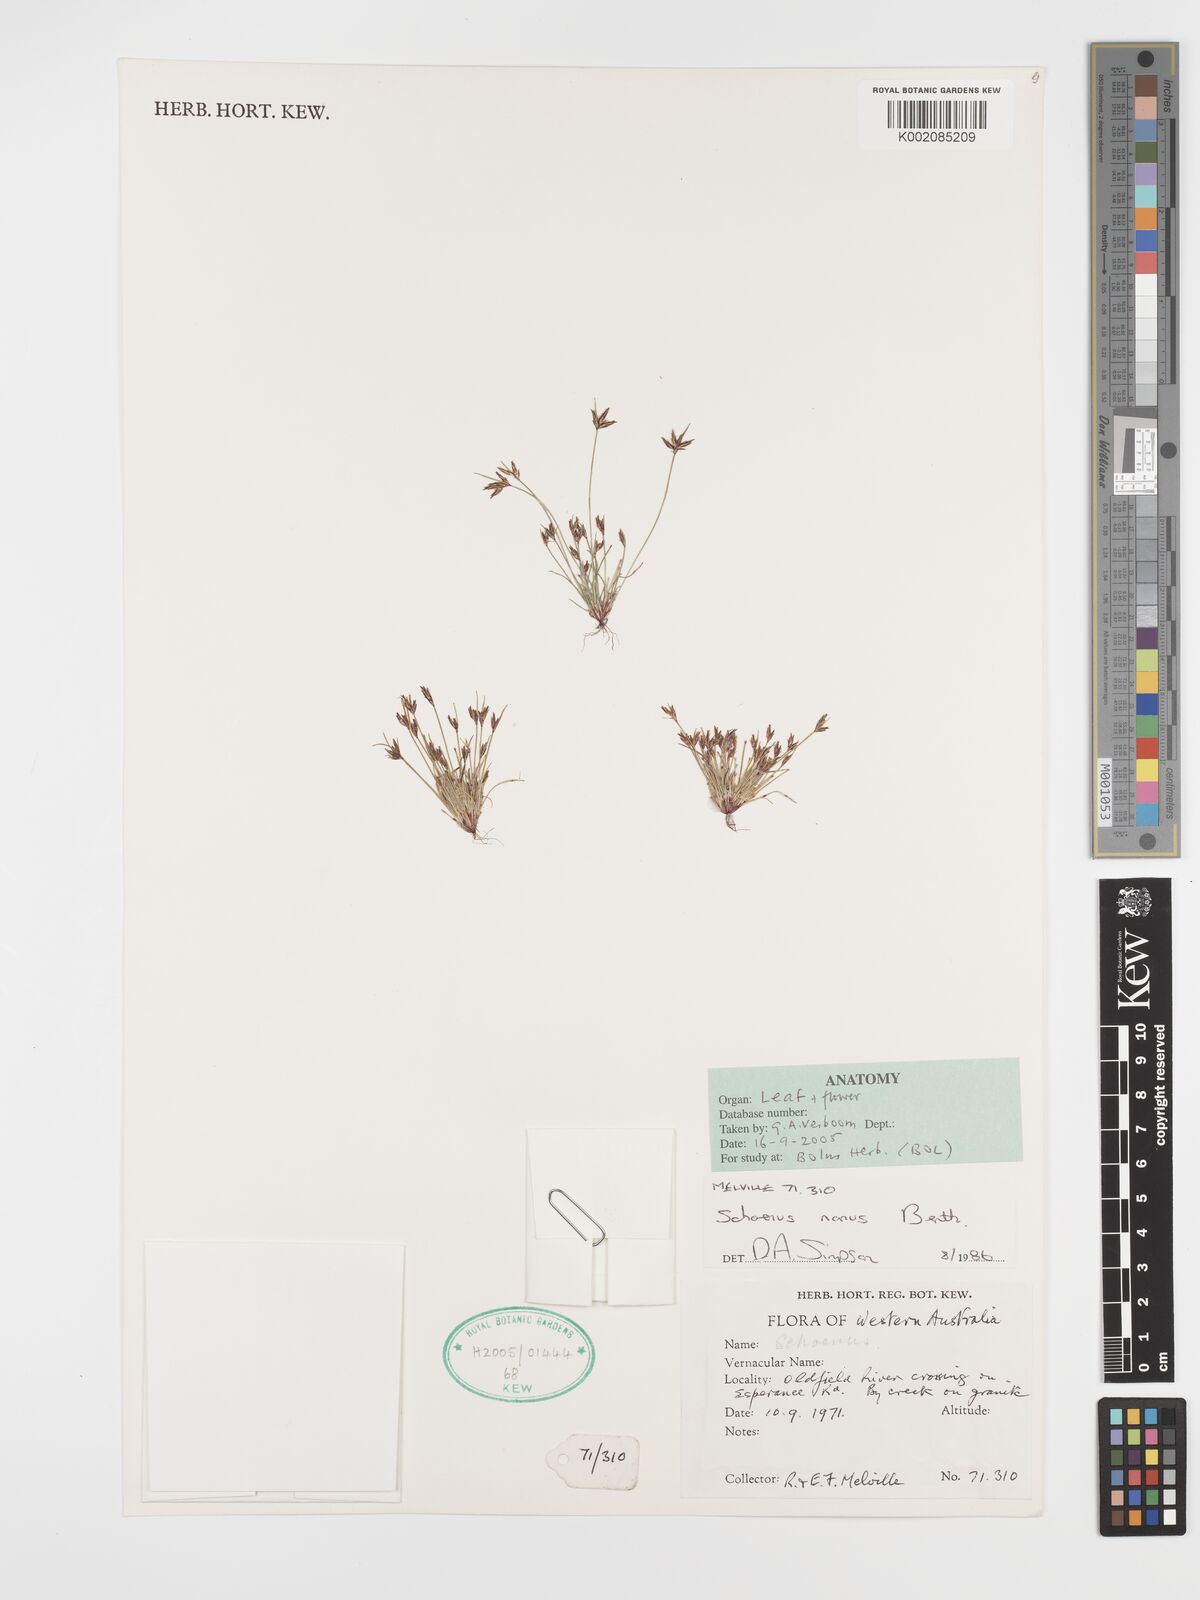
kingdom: Plantae
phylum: Tracheophyta
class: Liliopsida
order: Poales
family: Cyperaceae
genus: Schoenus
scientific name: Schoenus nanus
